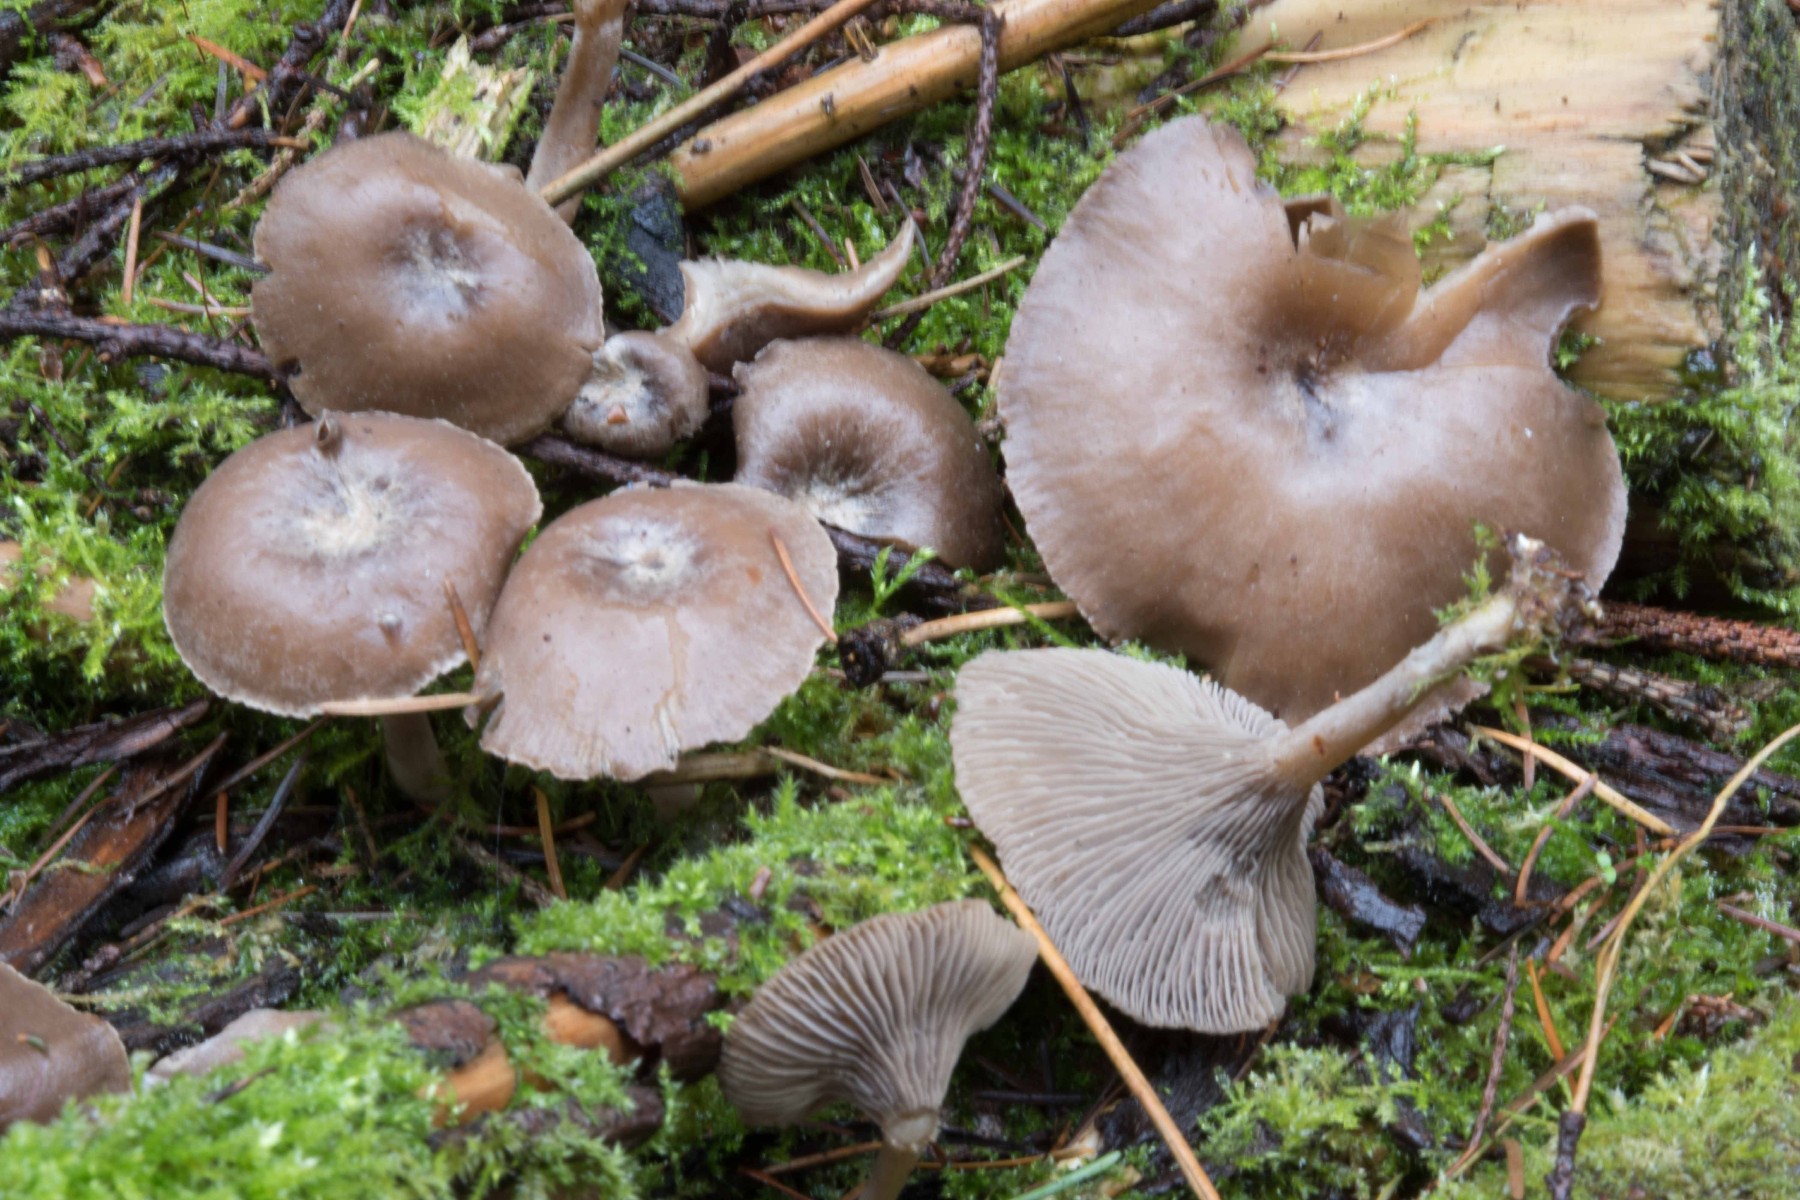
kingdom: Fungi
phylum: Basidiomycota
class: Agaricomycetes
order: Agaricales
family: Tricholomataceae
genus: Clitocybe
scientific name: Clitocybe metachroa
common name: grå tragthat
